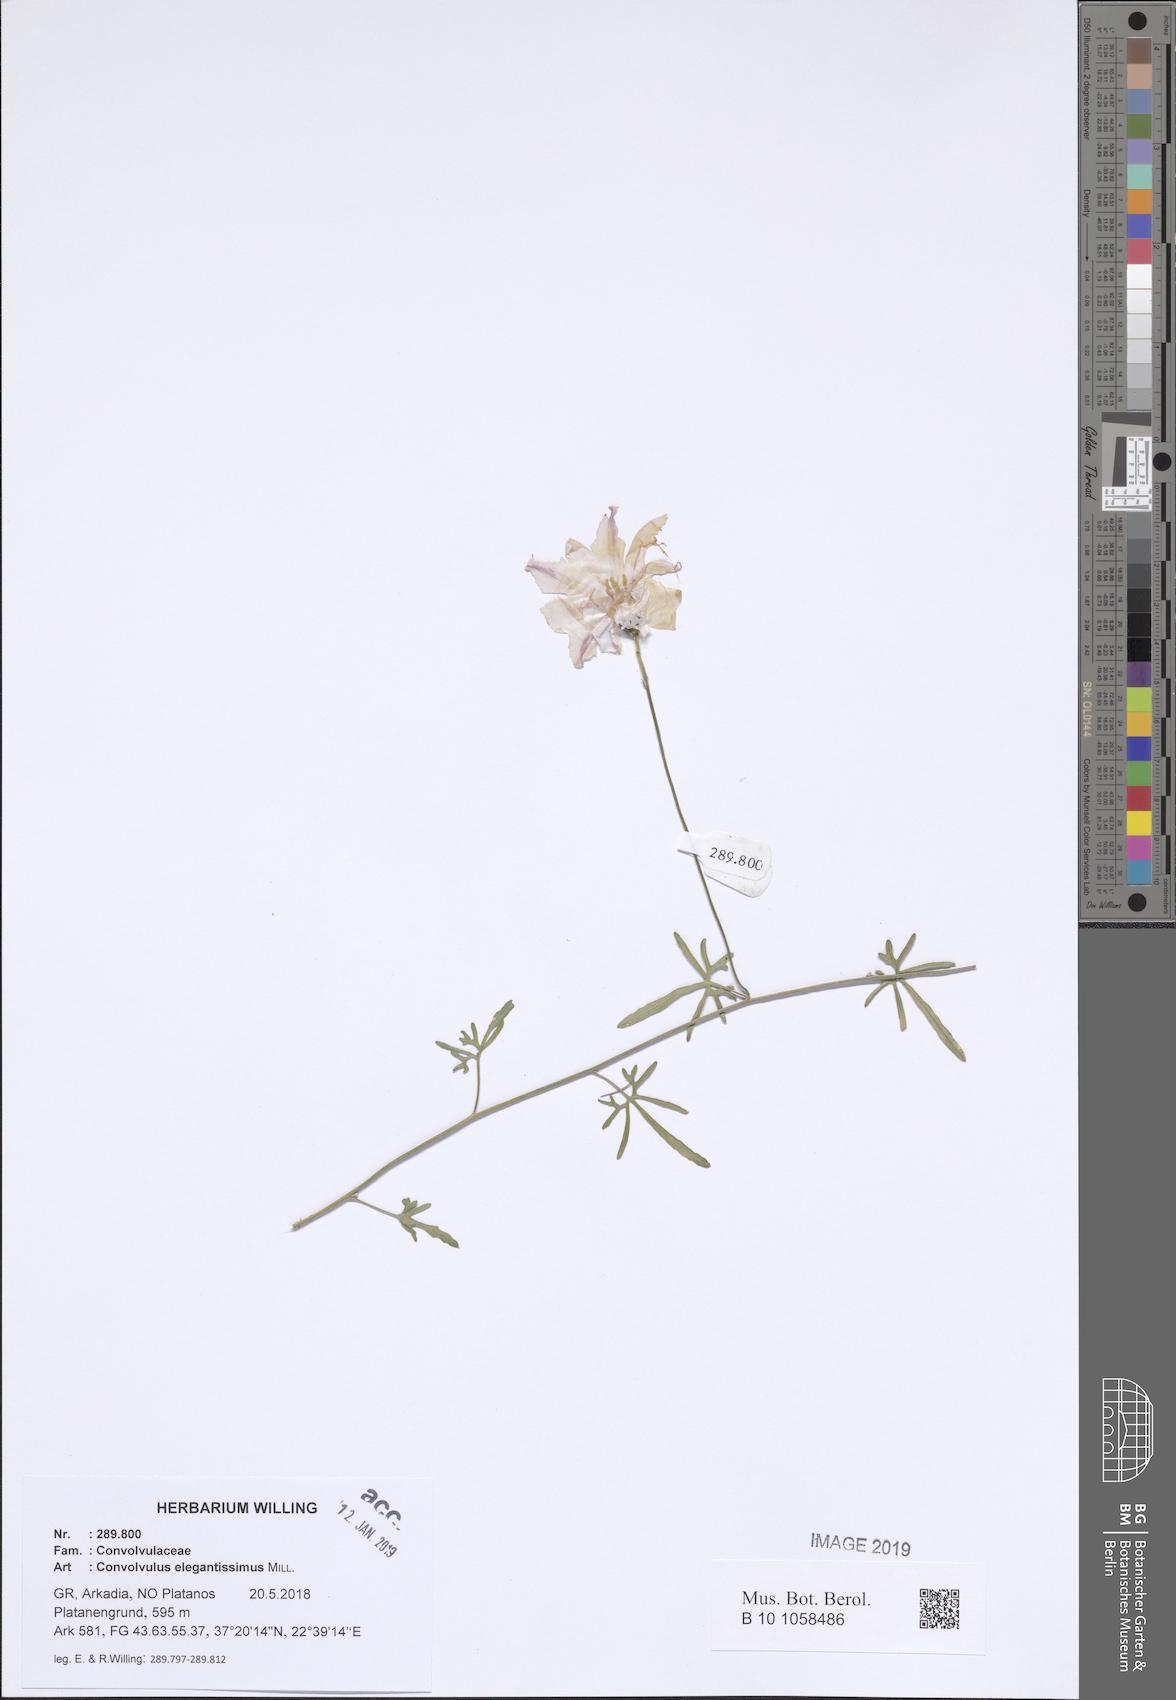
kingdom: Plantae
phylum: Tracheophyta
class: Magnoliopsida
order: Solanales
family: Convolvulaceae
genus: Convolvulus
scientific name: Convolvulus elegantissimus
